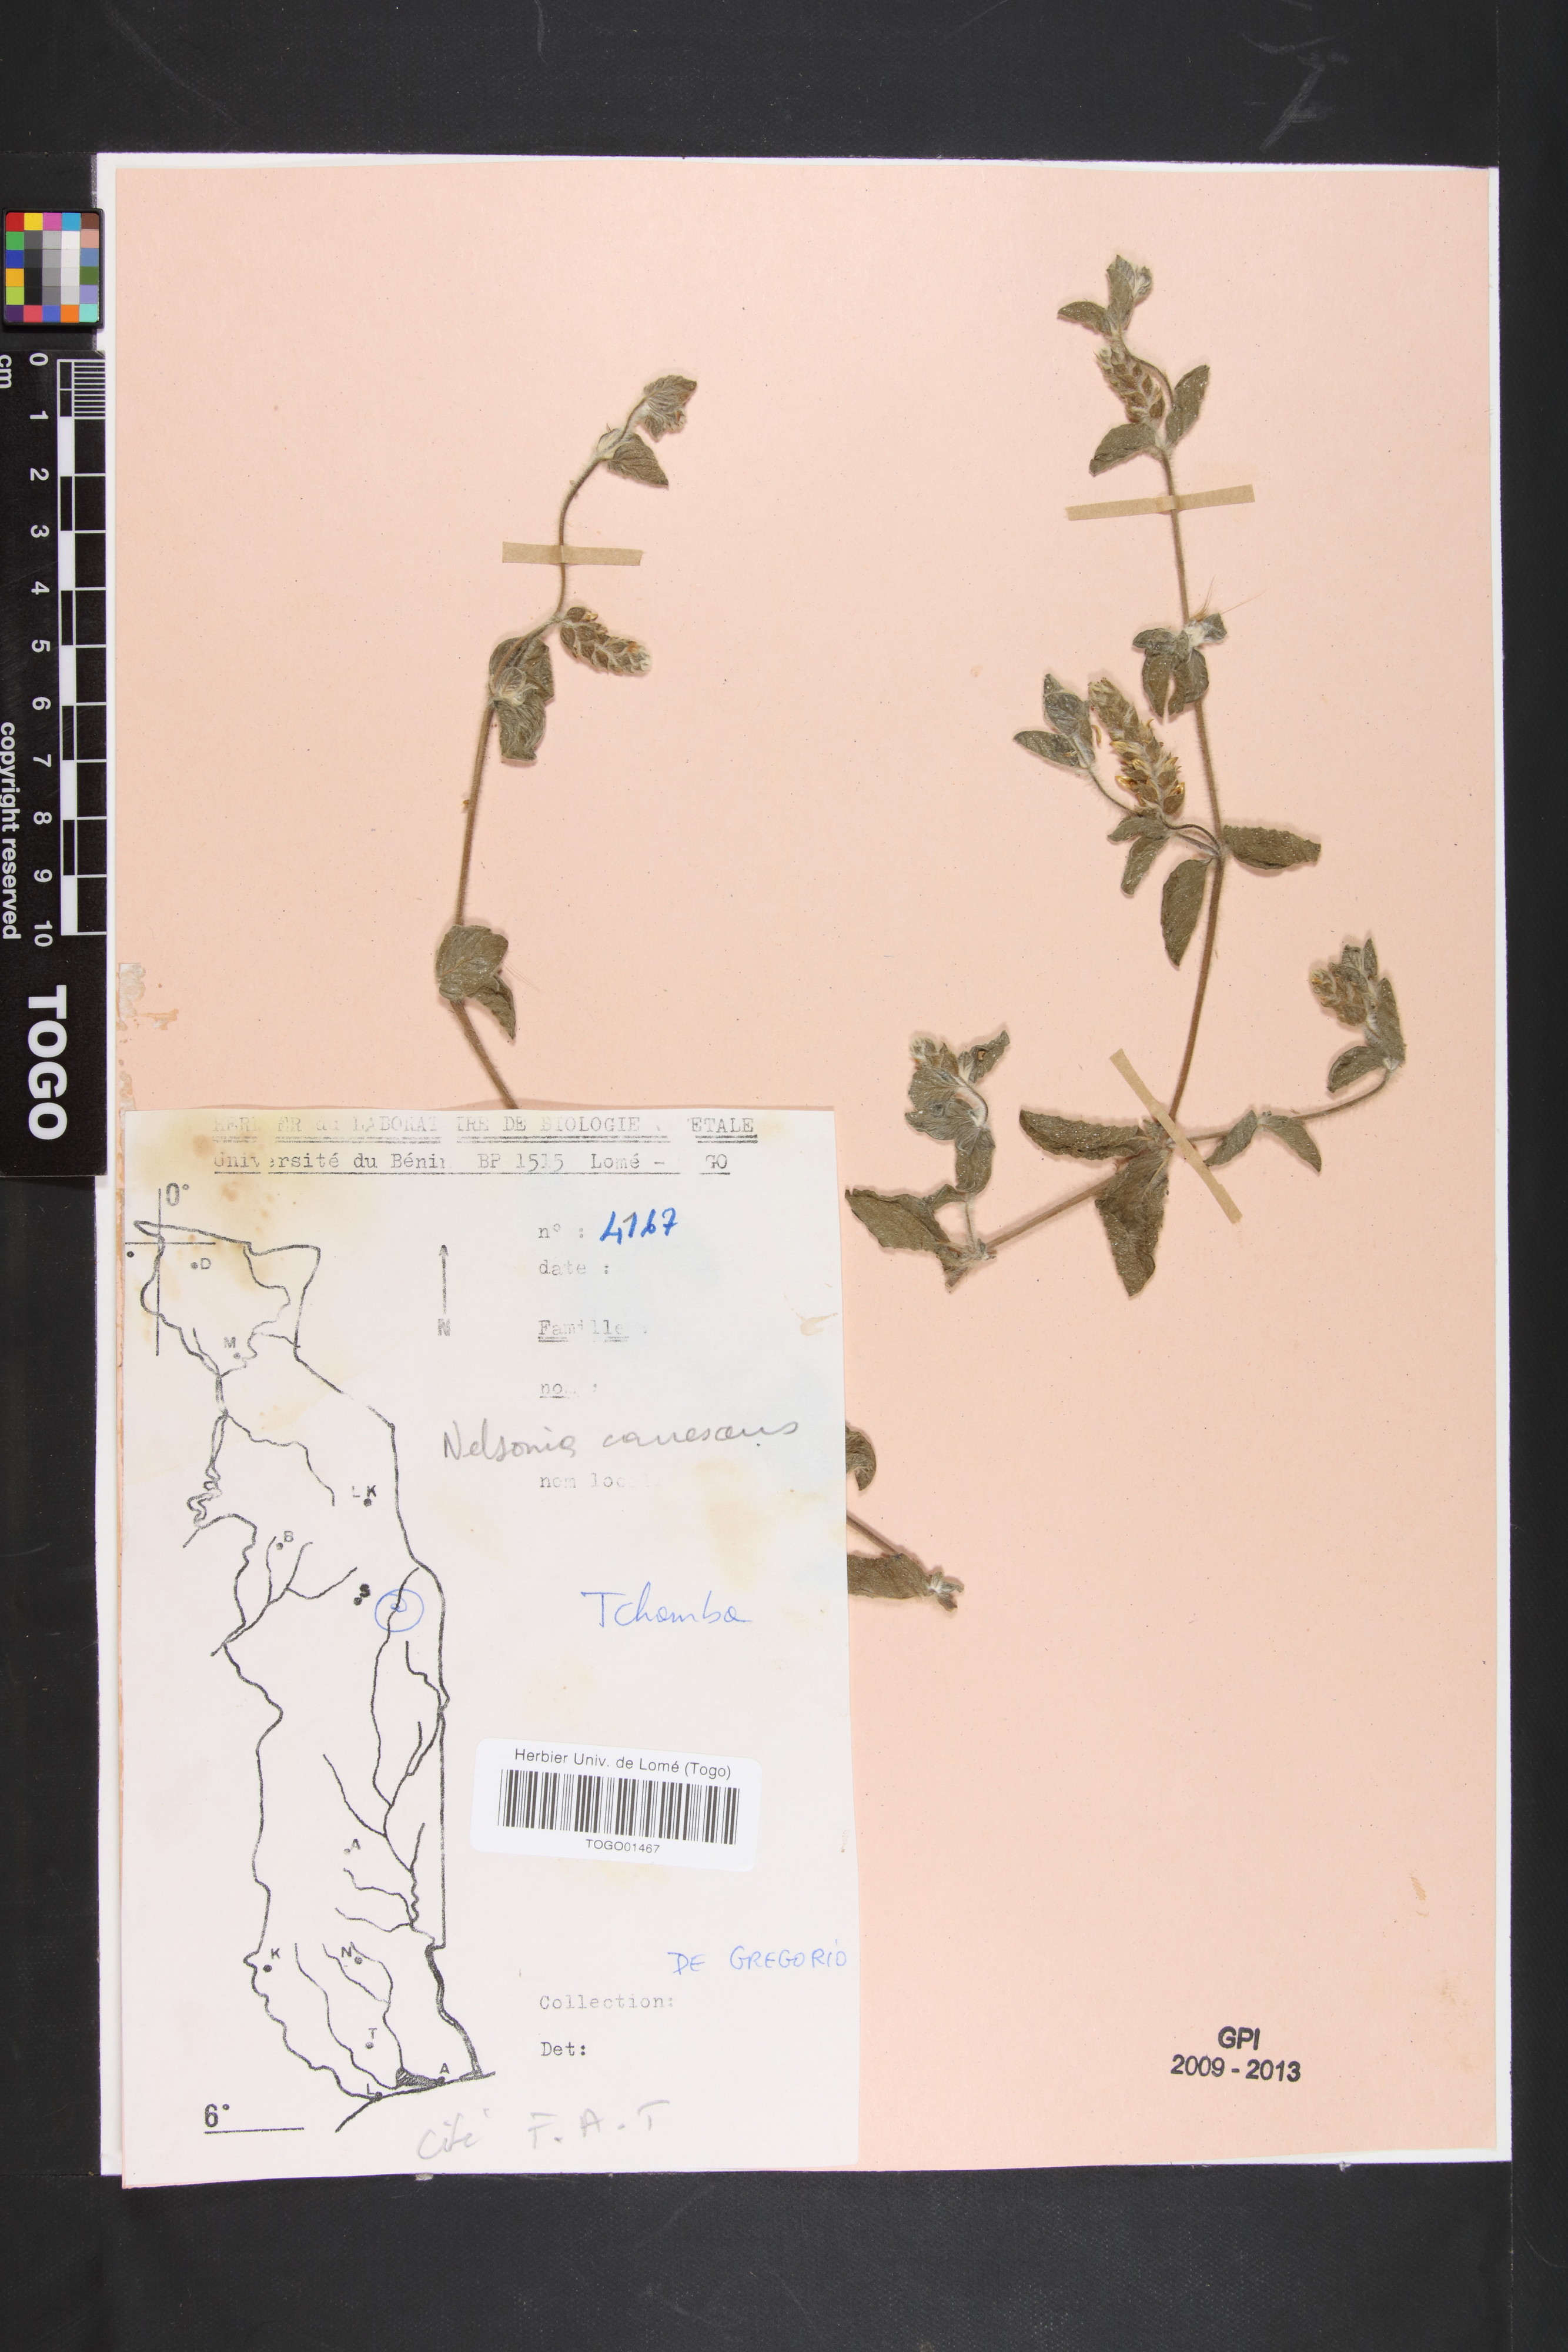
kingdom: Plantae
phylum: Tracheophyta
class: Magnoliopsida
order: Lamiales
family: Acanthaceae
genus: Nelsonia
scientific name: Nelsonia canescens
